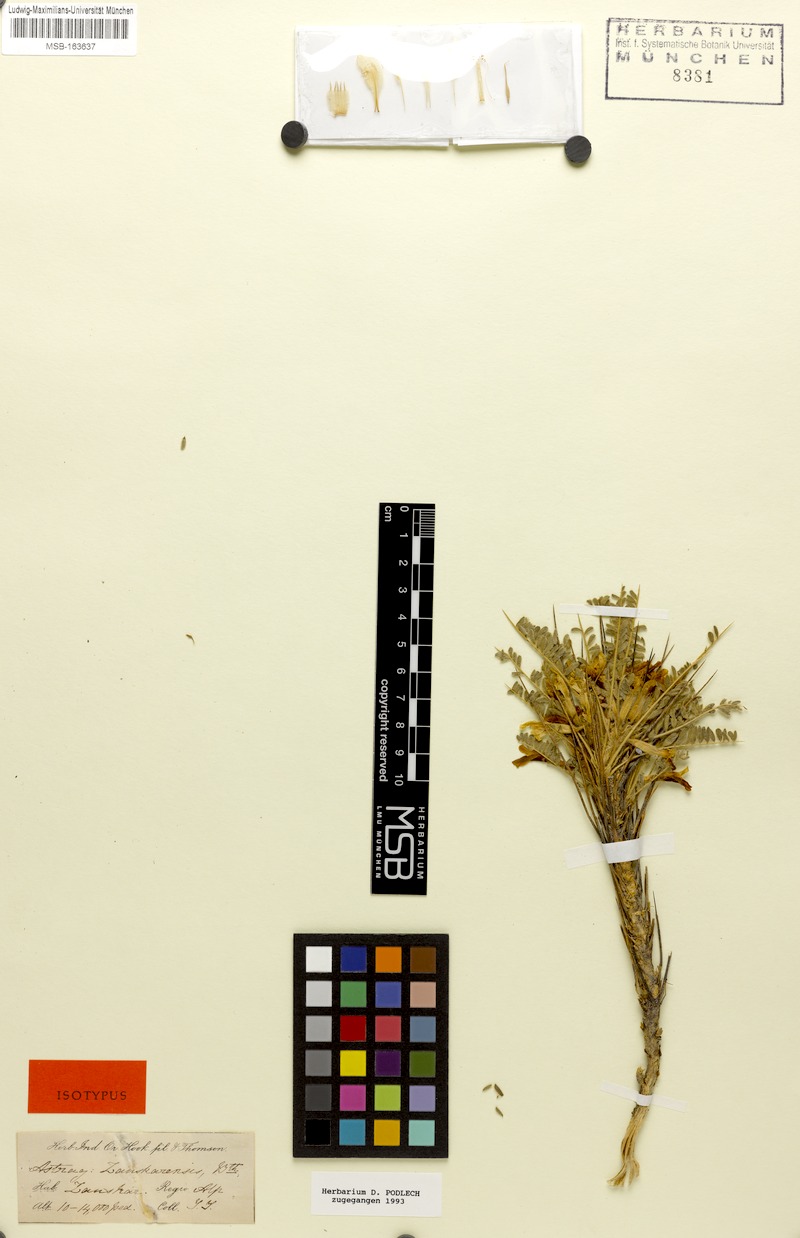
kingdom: Plantae
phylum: Tracheophyta
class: Magnoliopsida
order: Fabales
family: Fabaceae
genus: Astragalus
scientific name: Astragalus zanskarensis
